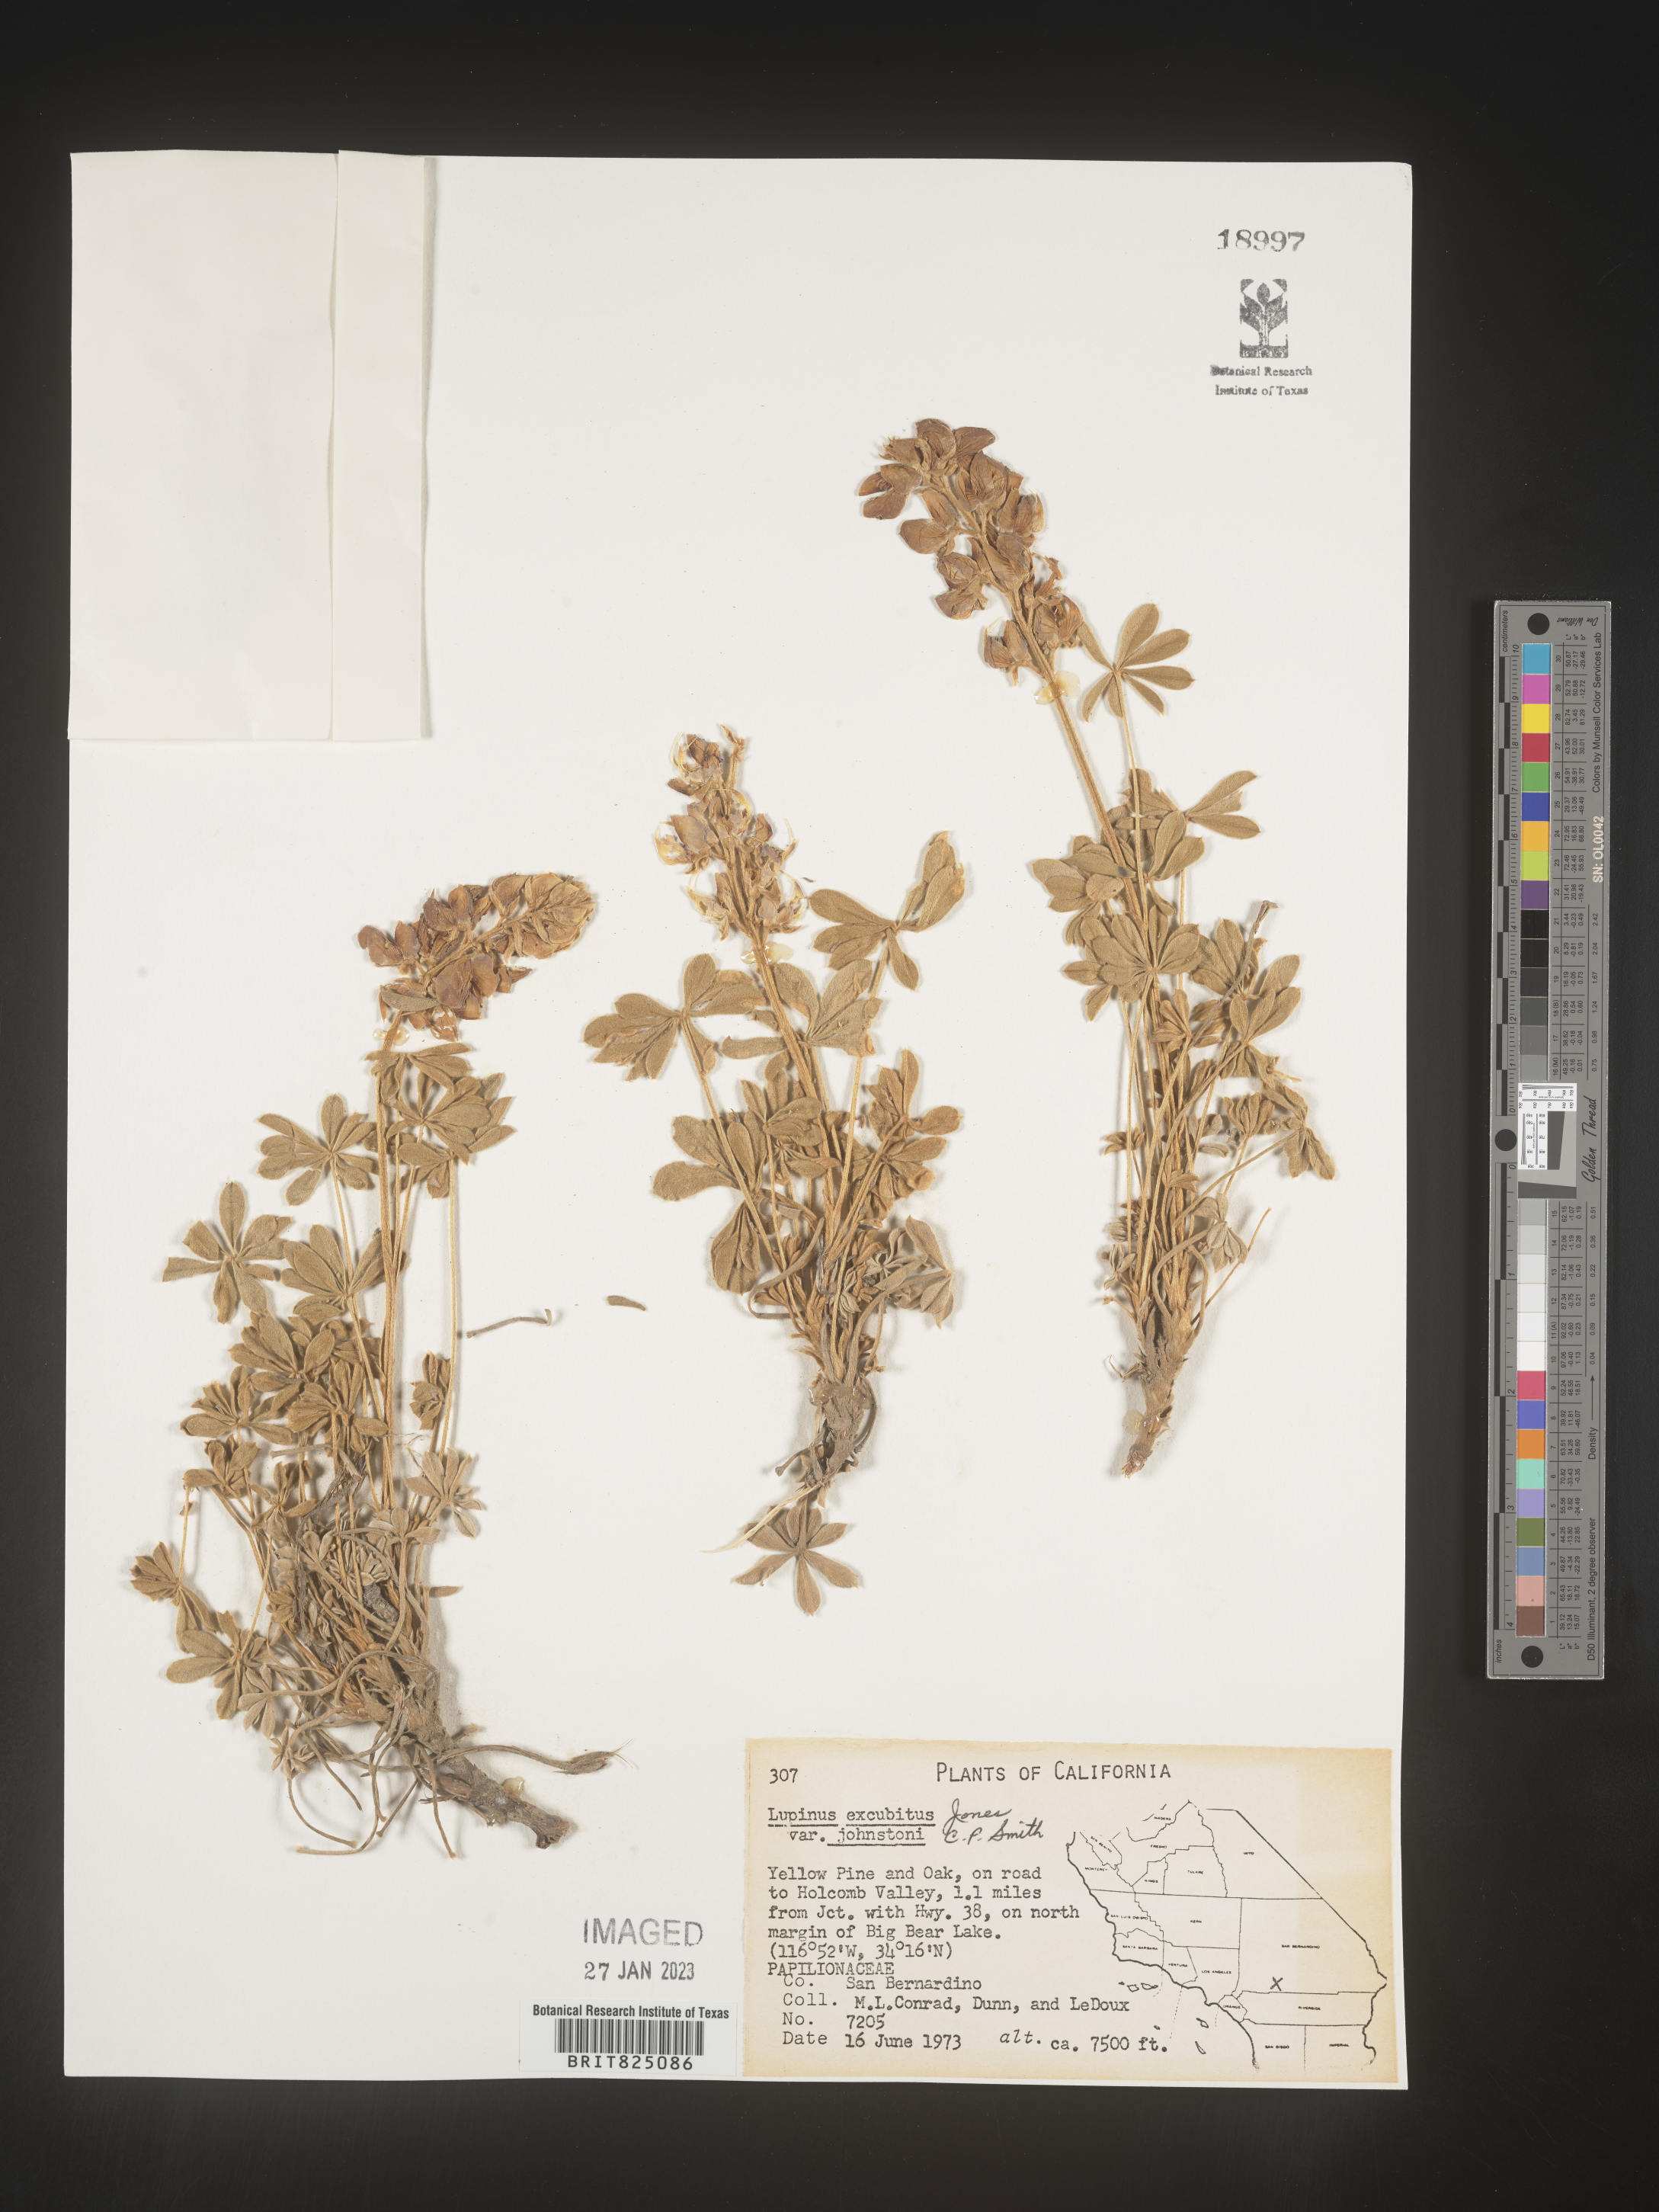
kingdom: Plantae
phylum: Tracheophyta
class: Magnoliopsida
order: Fabales
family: Fabaceae
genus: Lupinus
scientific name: Lupinus
